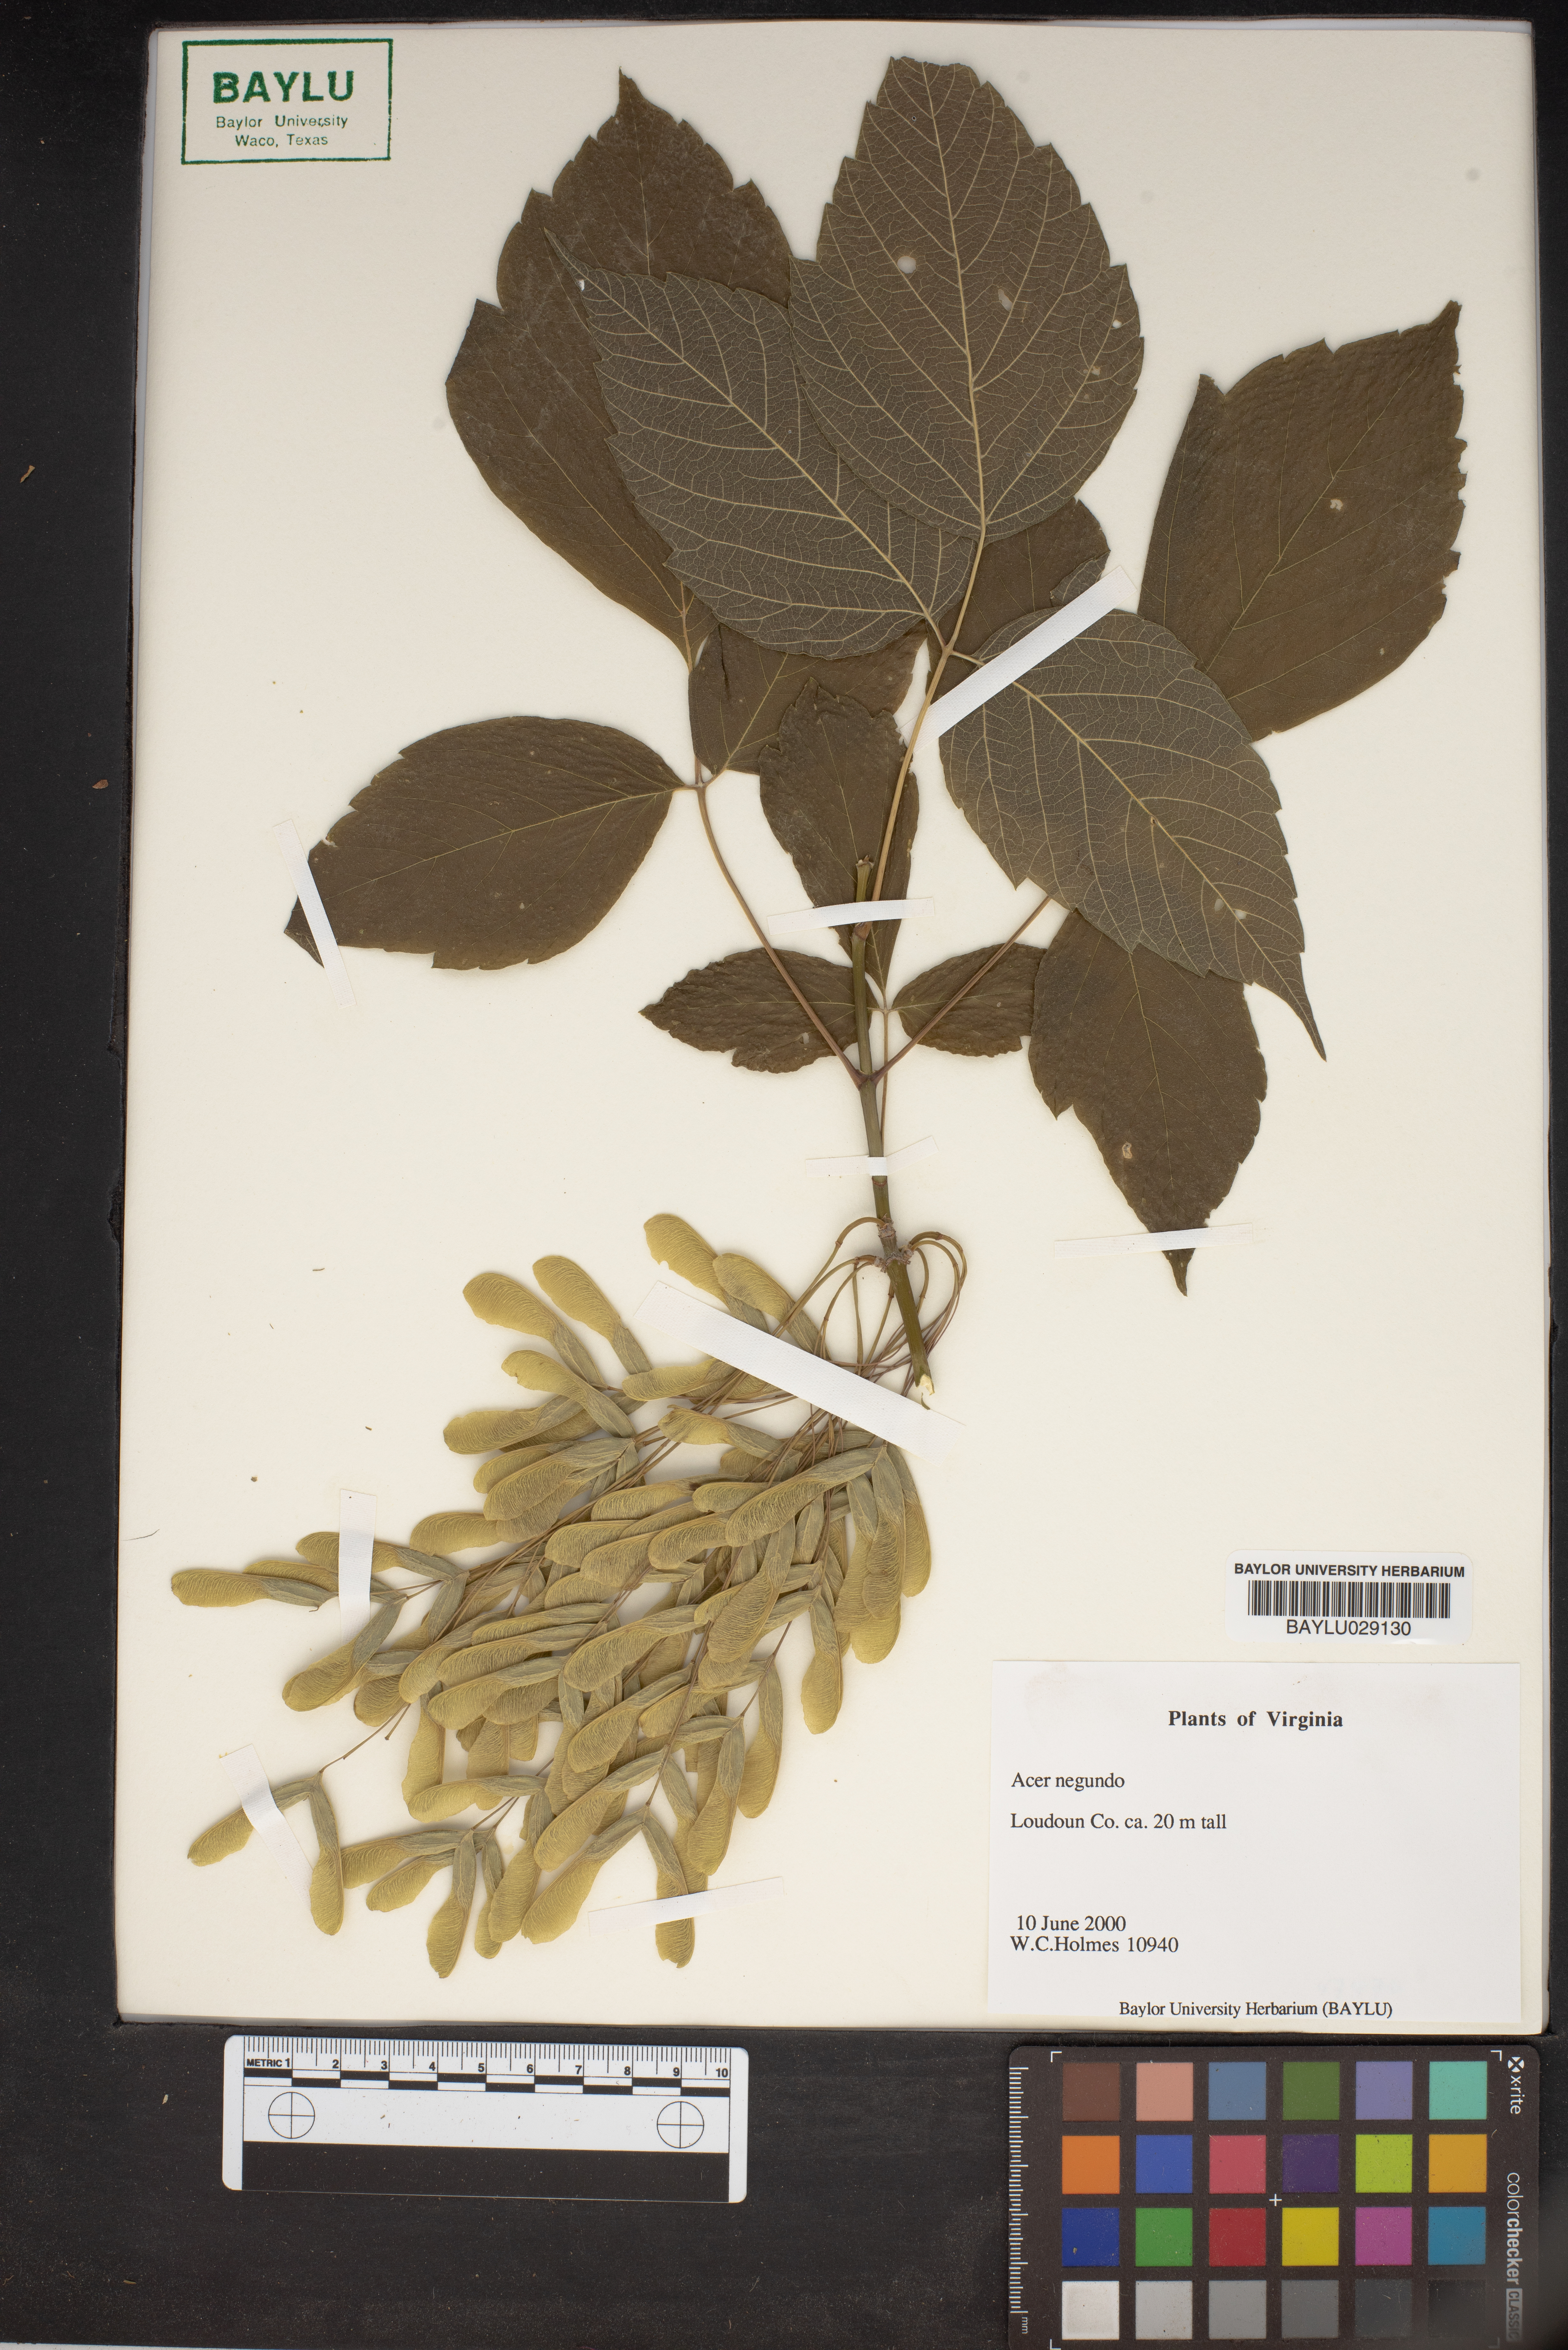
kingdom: Plantae
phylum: Tracheophyta
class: Magnoliopsida
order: Sapindales
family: Sapindaceae
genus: Acer
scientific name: Acer negundo
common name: Ashleaf maple
